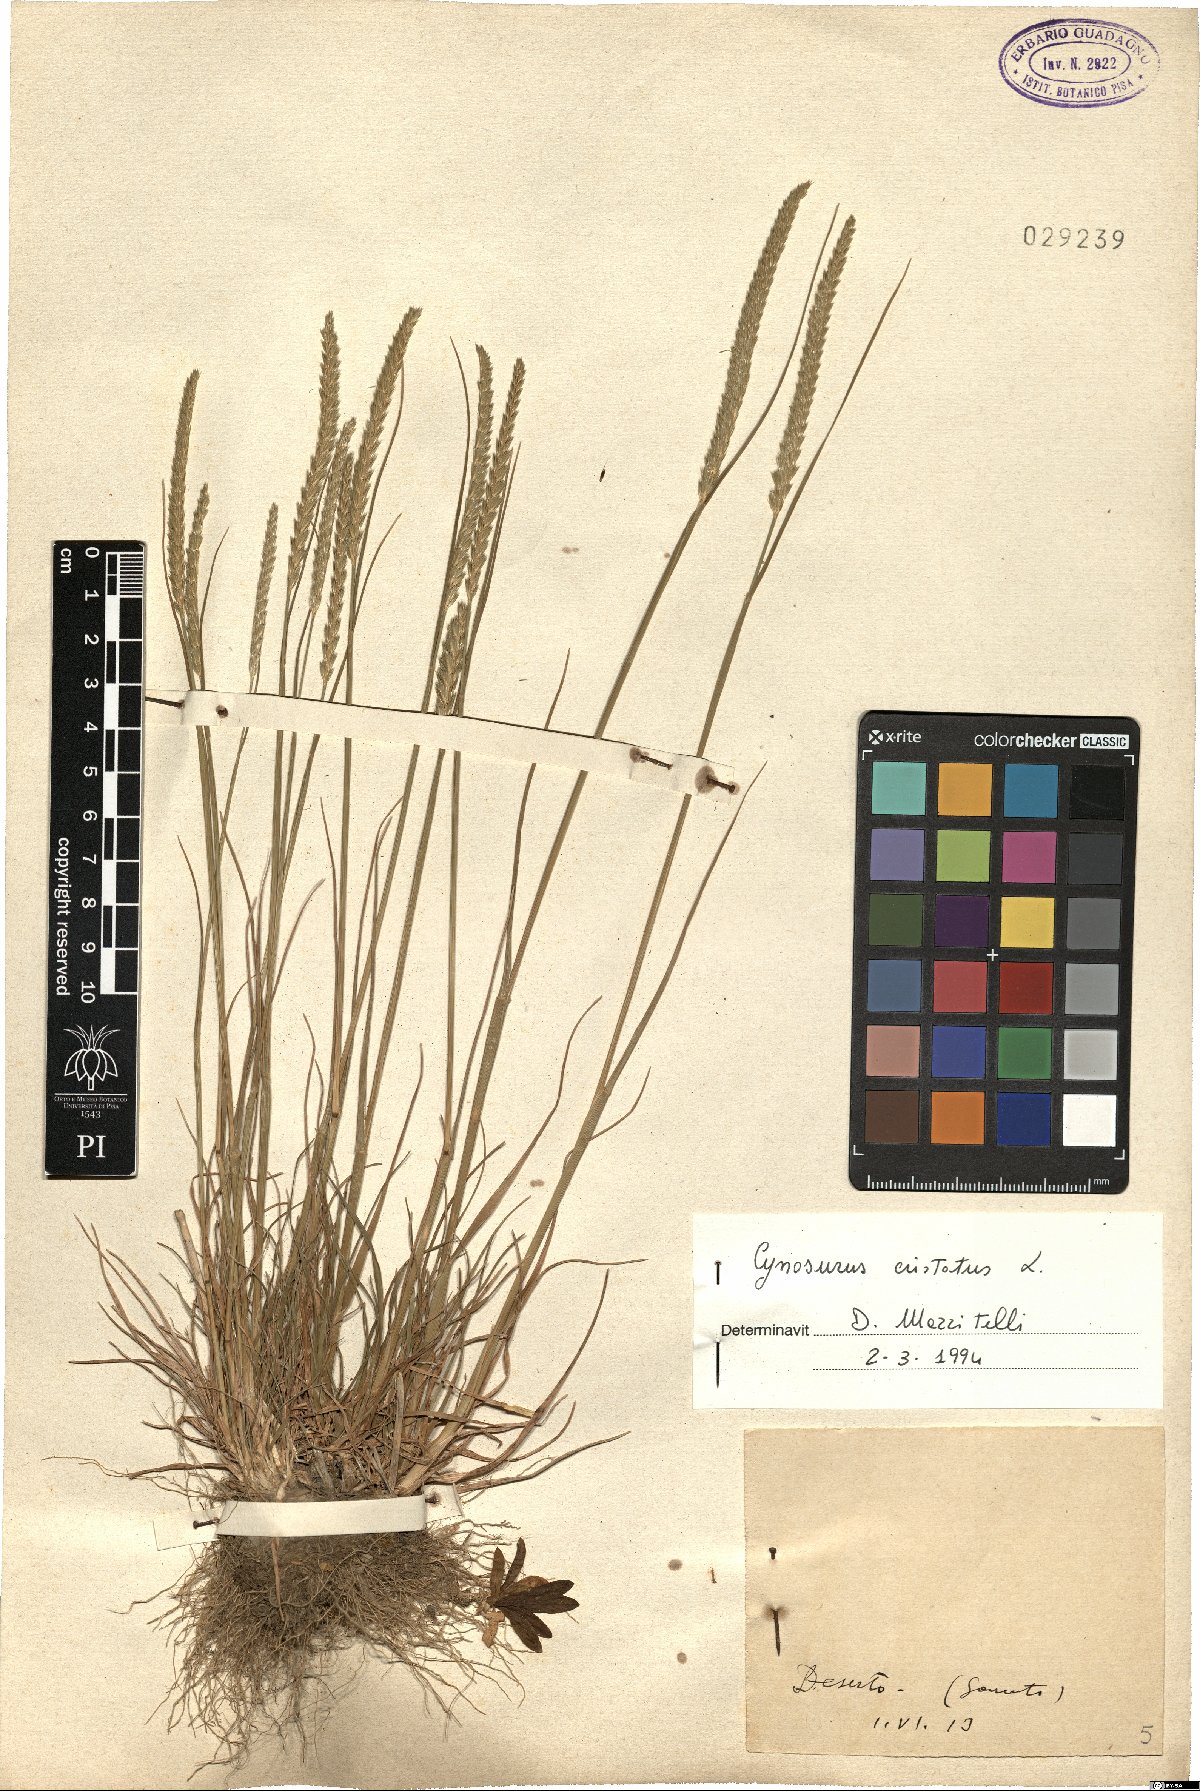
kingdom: Plantae
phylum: Tracheophyta
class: Liliopsida
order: Poales
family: Poaceae
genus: Cynosurus
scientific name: Cynosurus cristatus
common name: Crested dog's-tail
